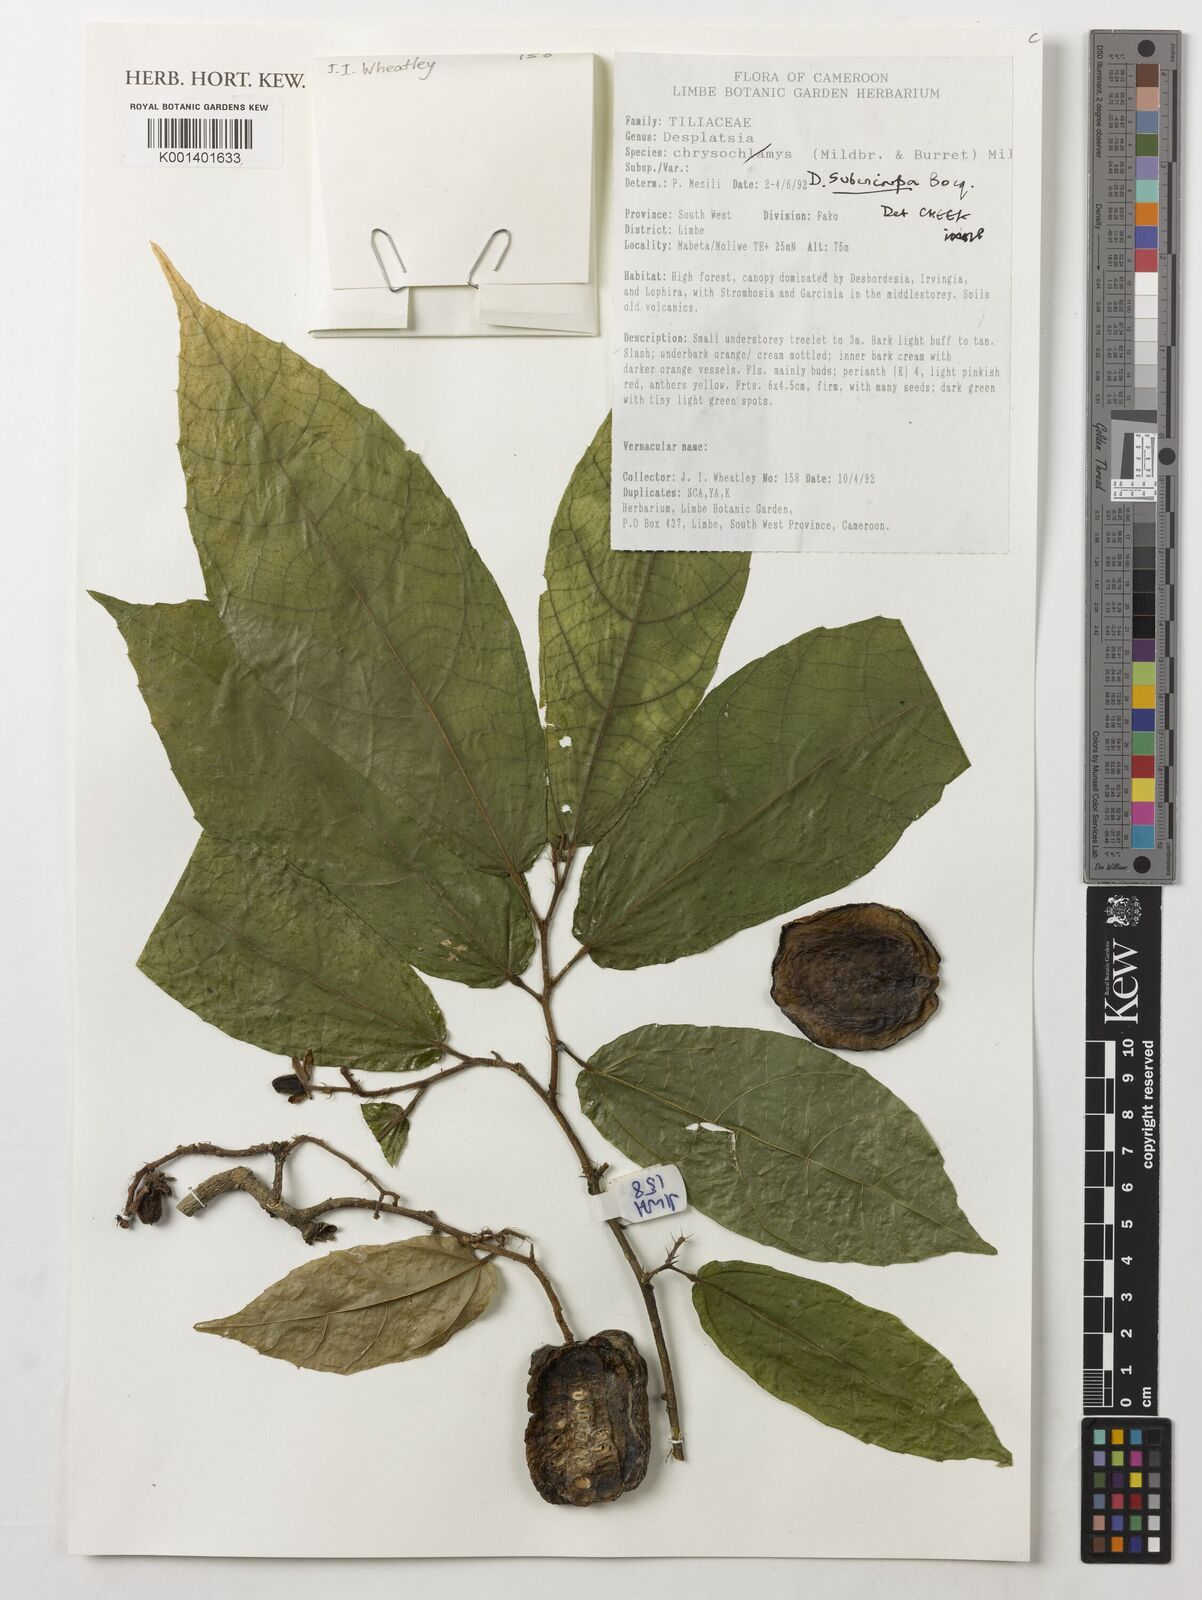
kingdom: Plantae
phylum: Tracheophyta
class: Magnoliopsida
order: Malvales
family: Malvaceae
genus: Desplatsia
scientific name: Desplatsia subericarpa
